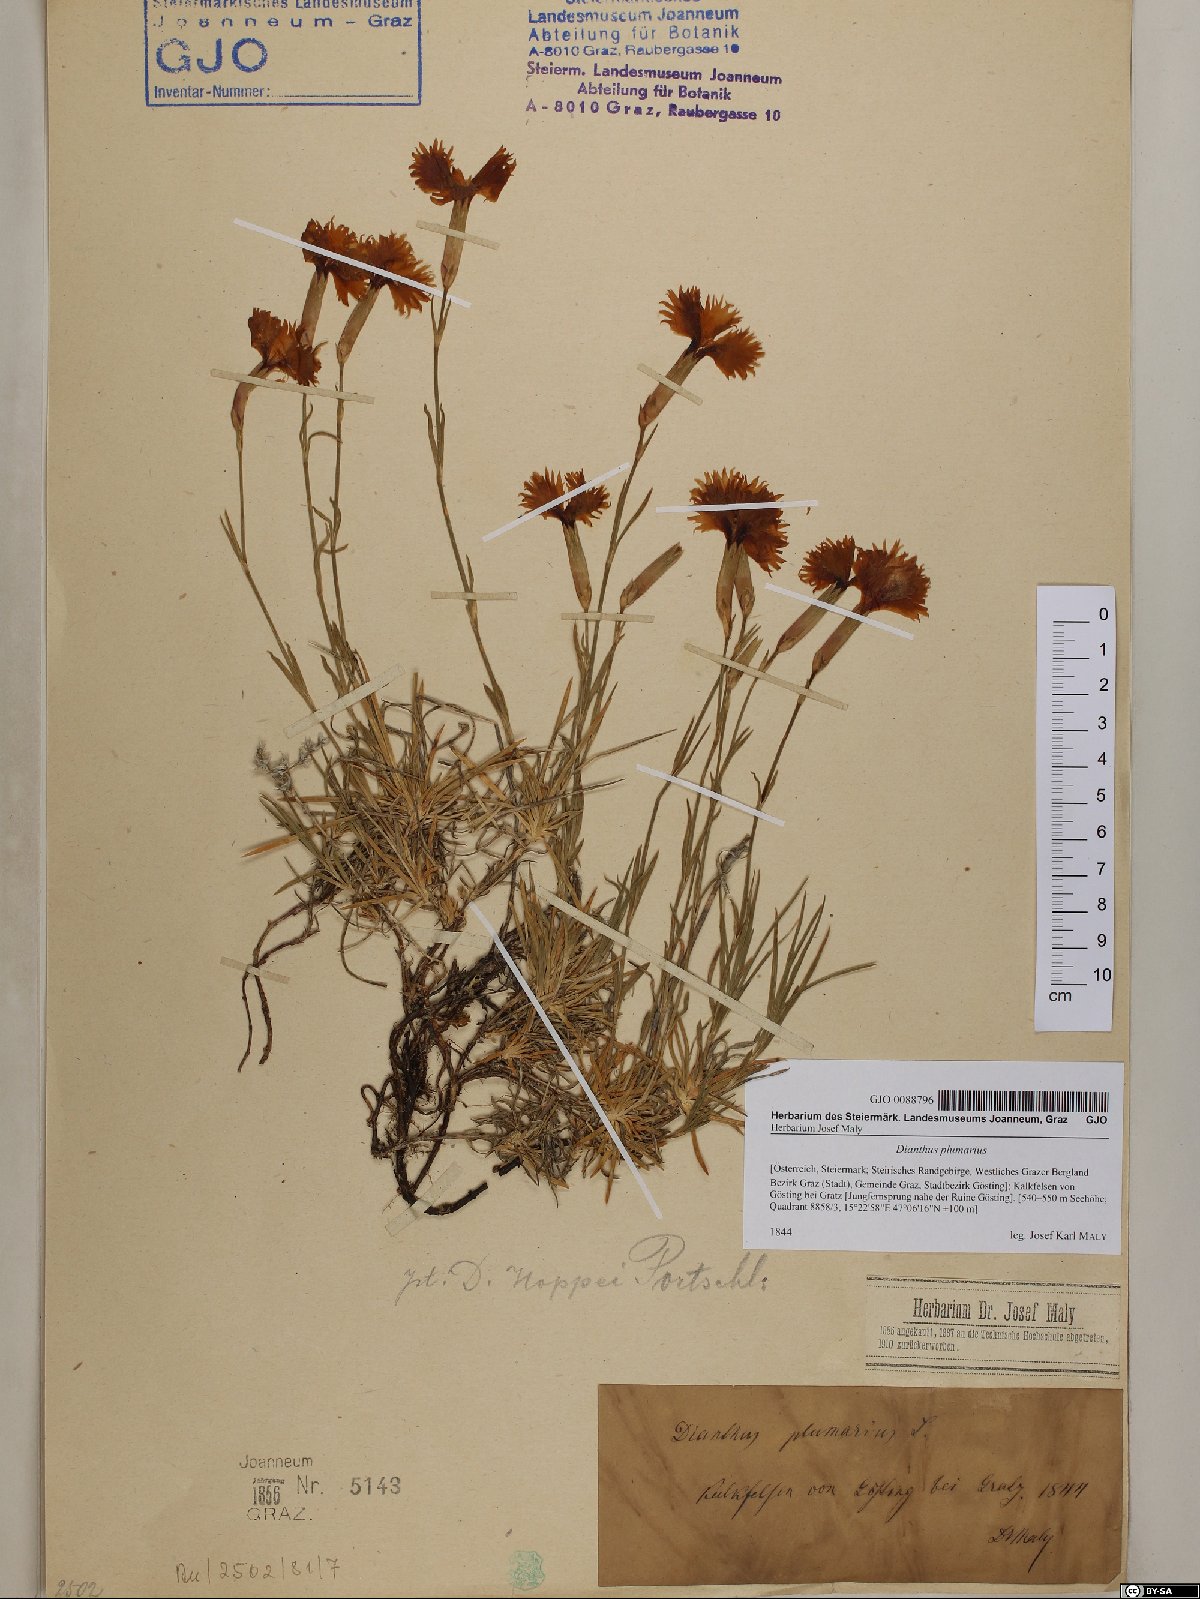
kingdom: Plantae
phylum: Tracheophyta
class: Magnoliopsida
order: Caryophyllales
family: Caryophyllaceae
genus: Dianthus
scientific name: Dianthus plumarius
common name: Pink
